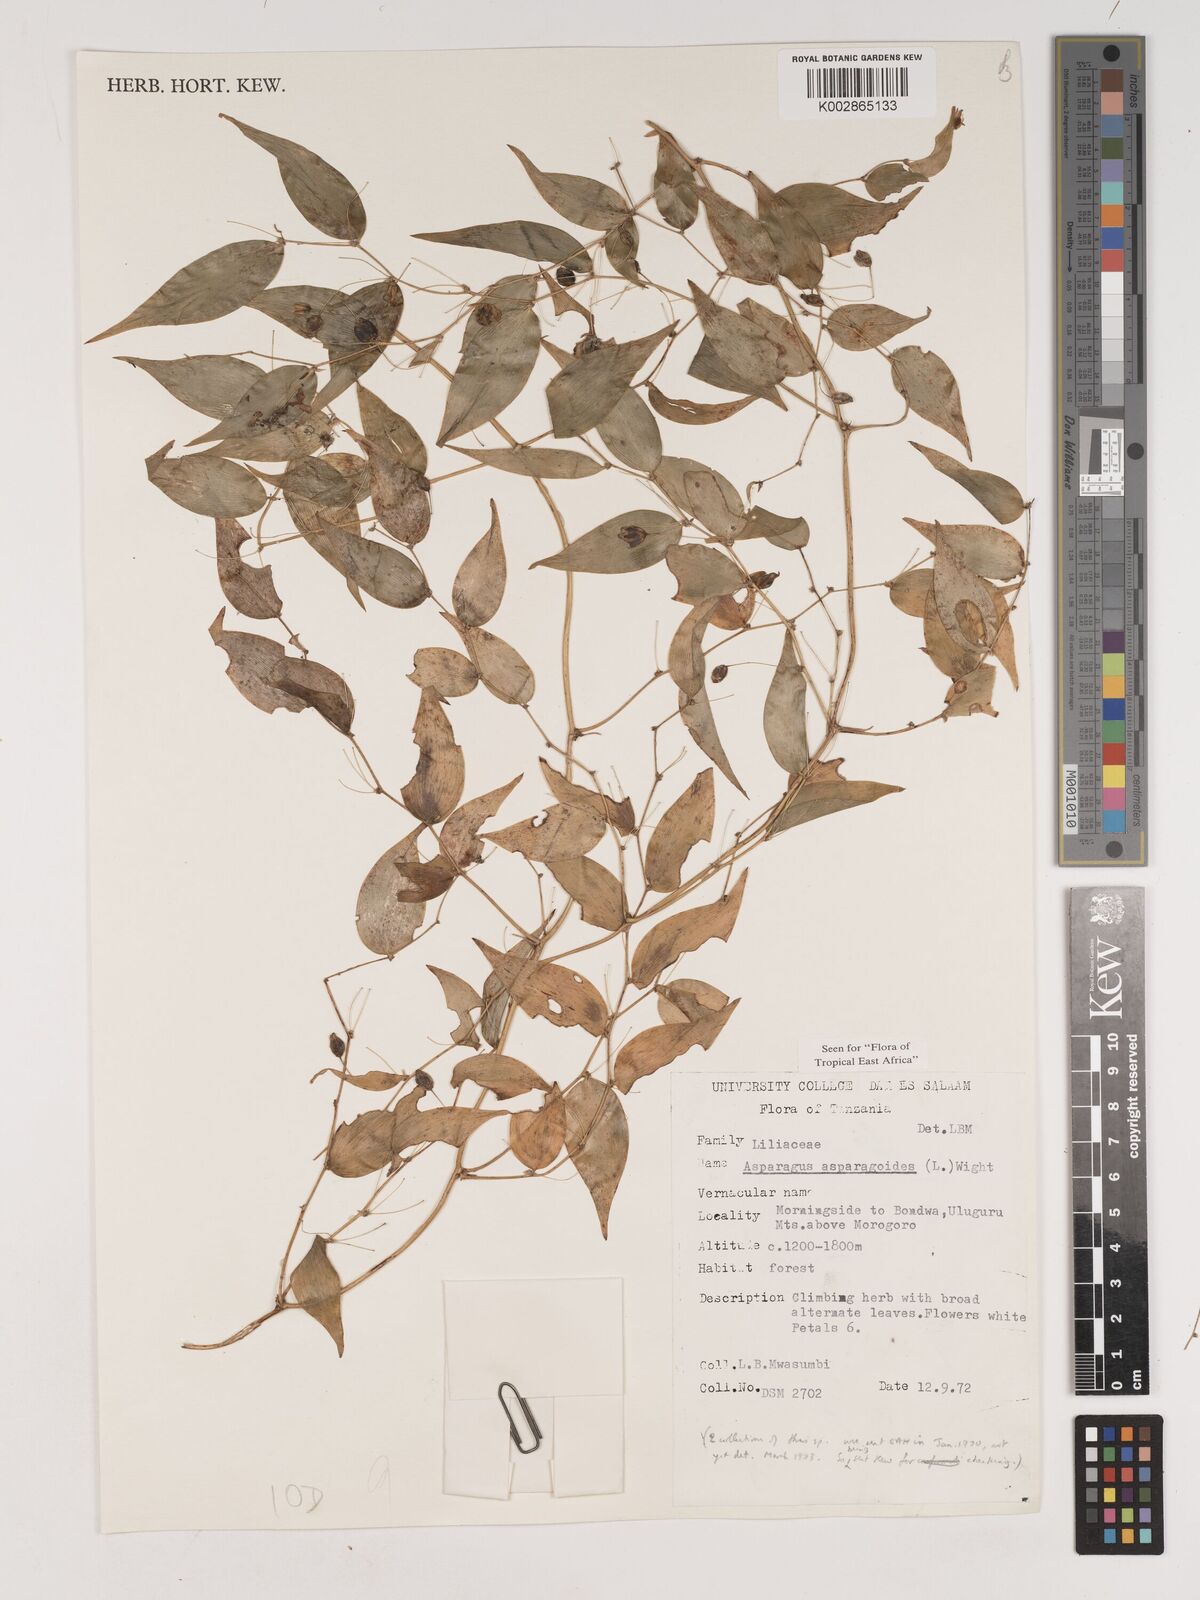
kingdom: Plantae
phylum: Tracheophyta
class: Liliopsida
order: Asparagales
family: Asparagaceae
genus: Asparagus
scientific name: Asparagus asparagoides
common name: African asparagus fern
